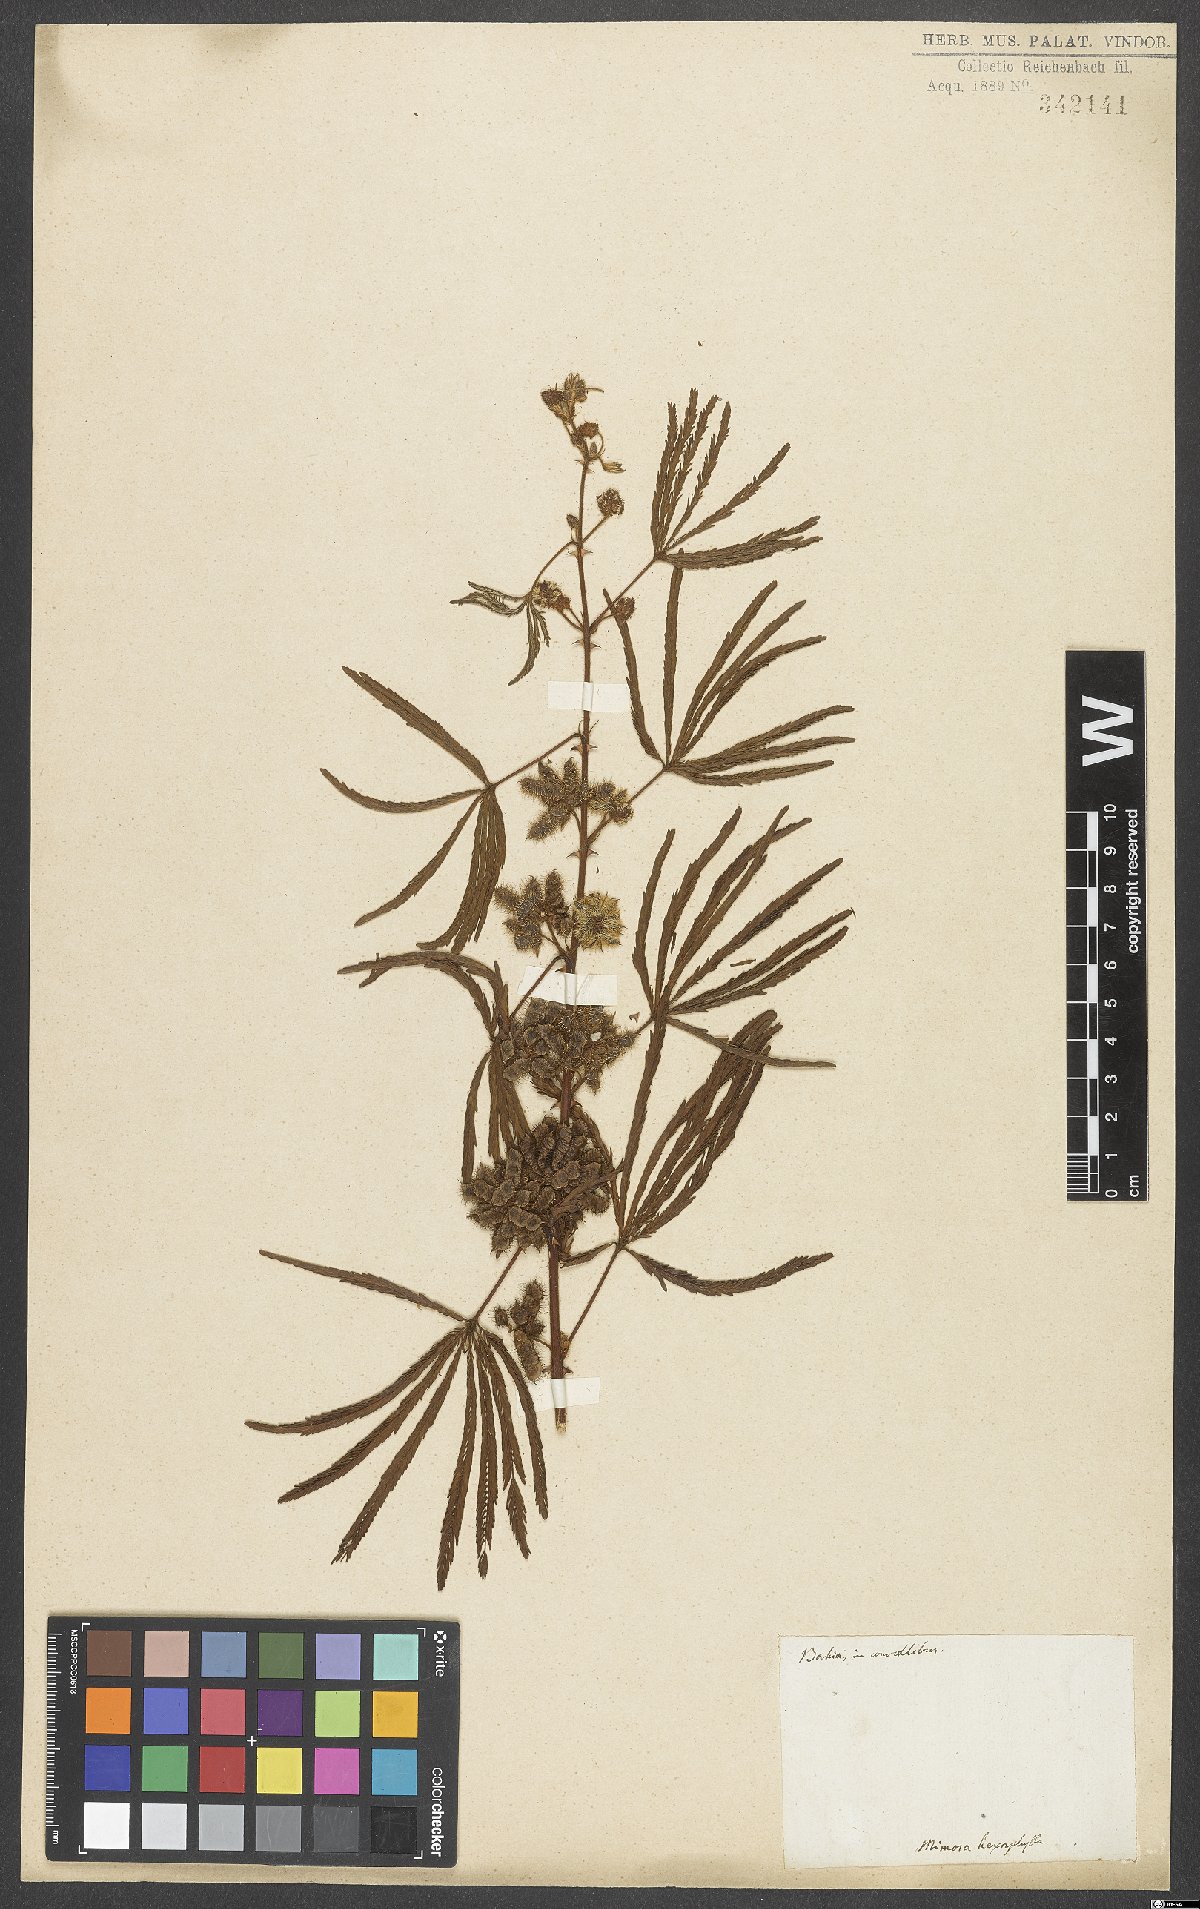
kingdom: Plantae
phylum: Tracheophyta
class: Magnoliopsida
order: Fabales
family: Fabaceae
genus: Mimosa
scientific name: Mimosa polydactyla
